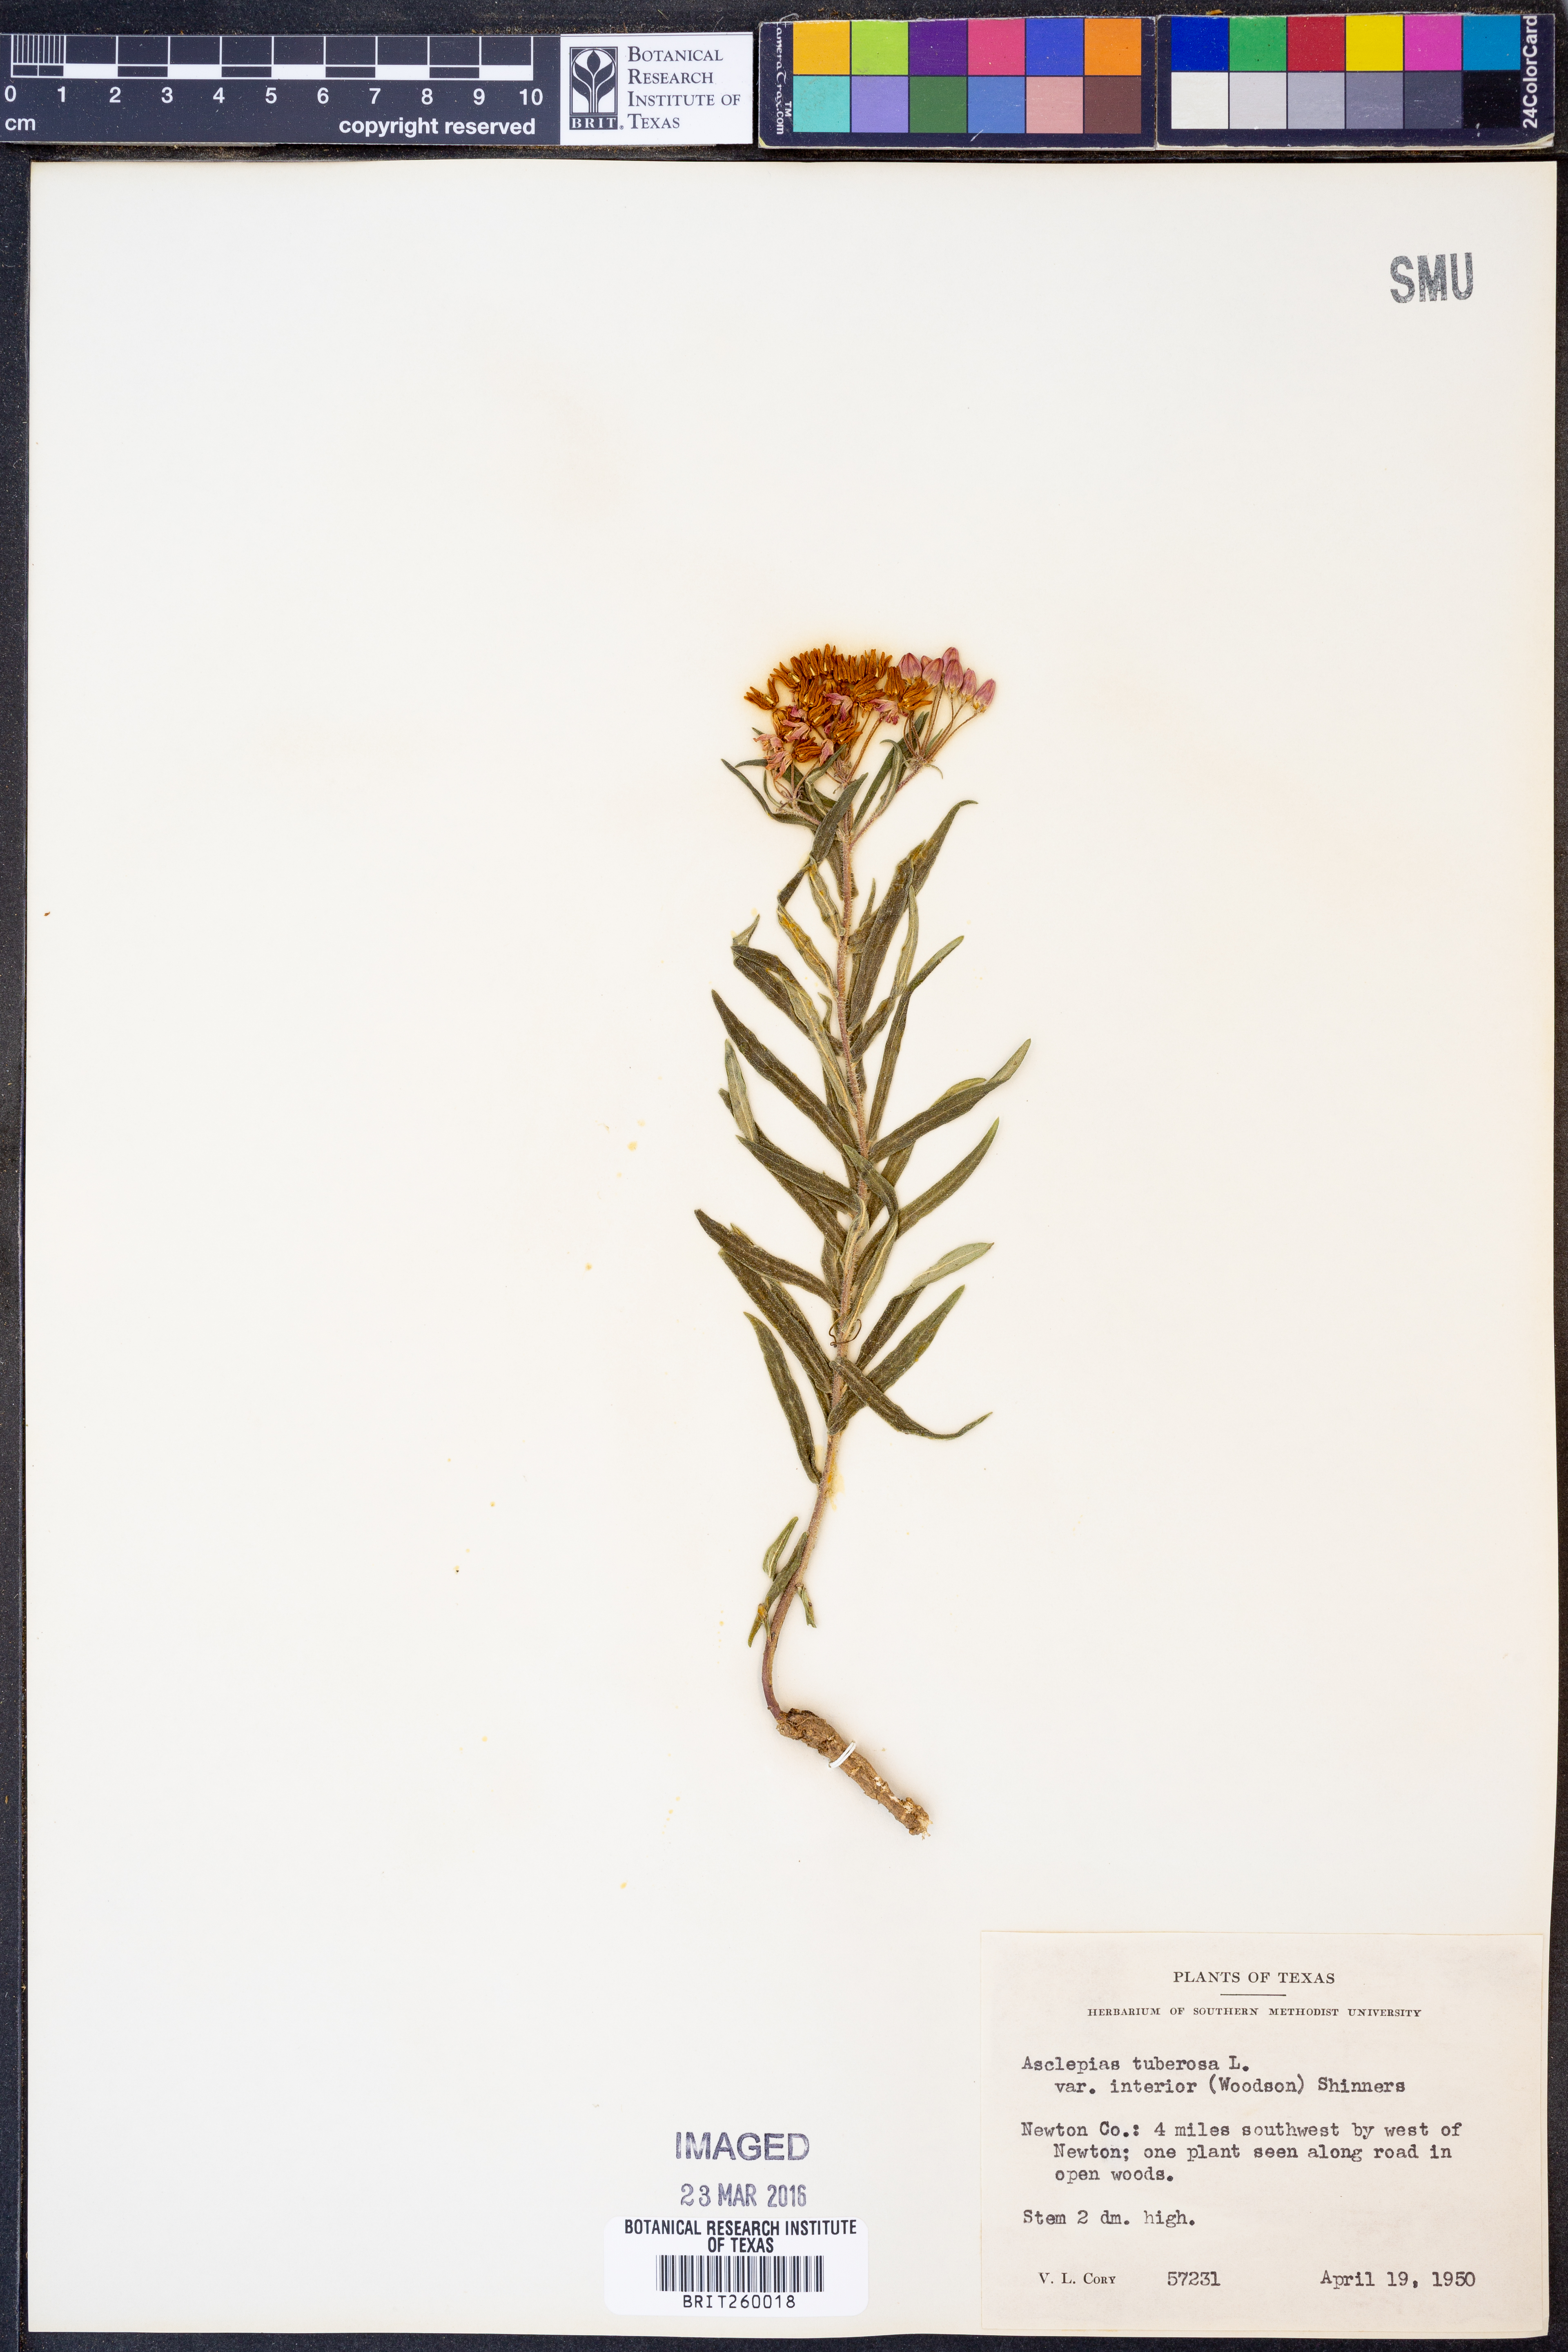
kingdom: Plantae
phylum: Tracheophyta
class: Magnoliopsida
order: Gentianales
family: Apocynaceae
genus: Asclepias
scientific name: Asclepias tuberosa
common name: Butterfly milkweed
